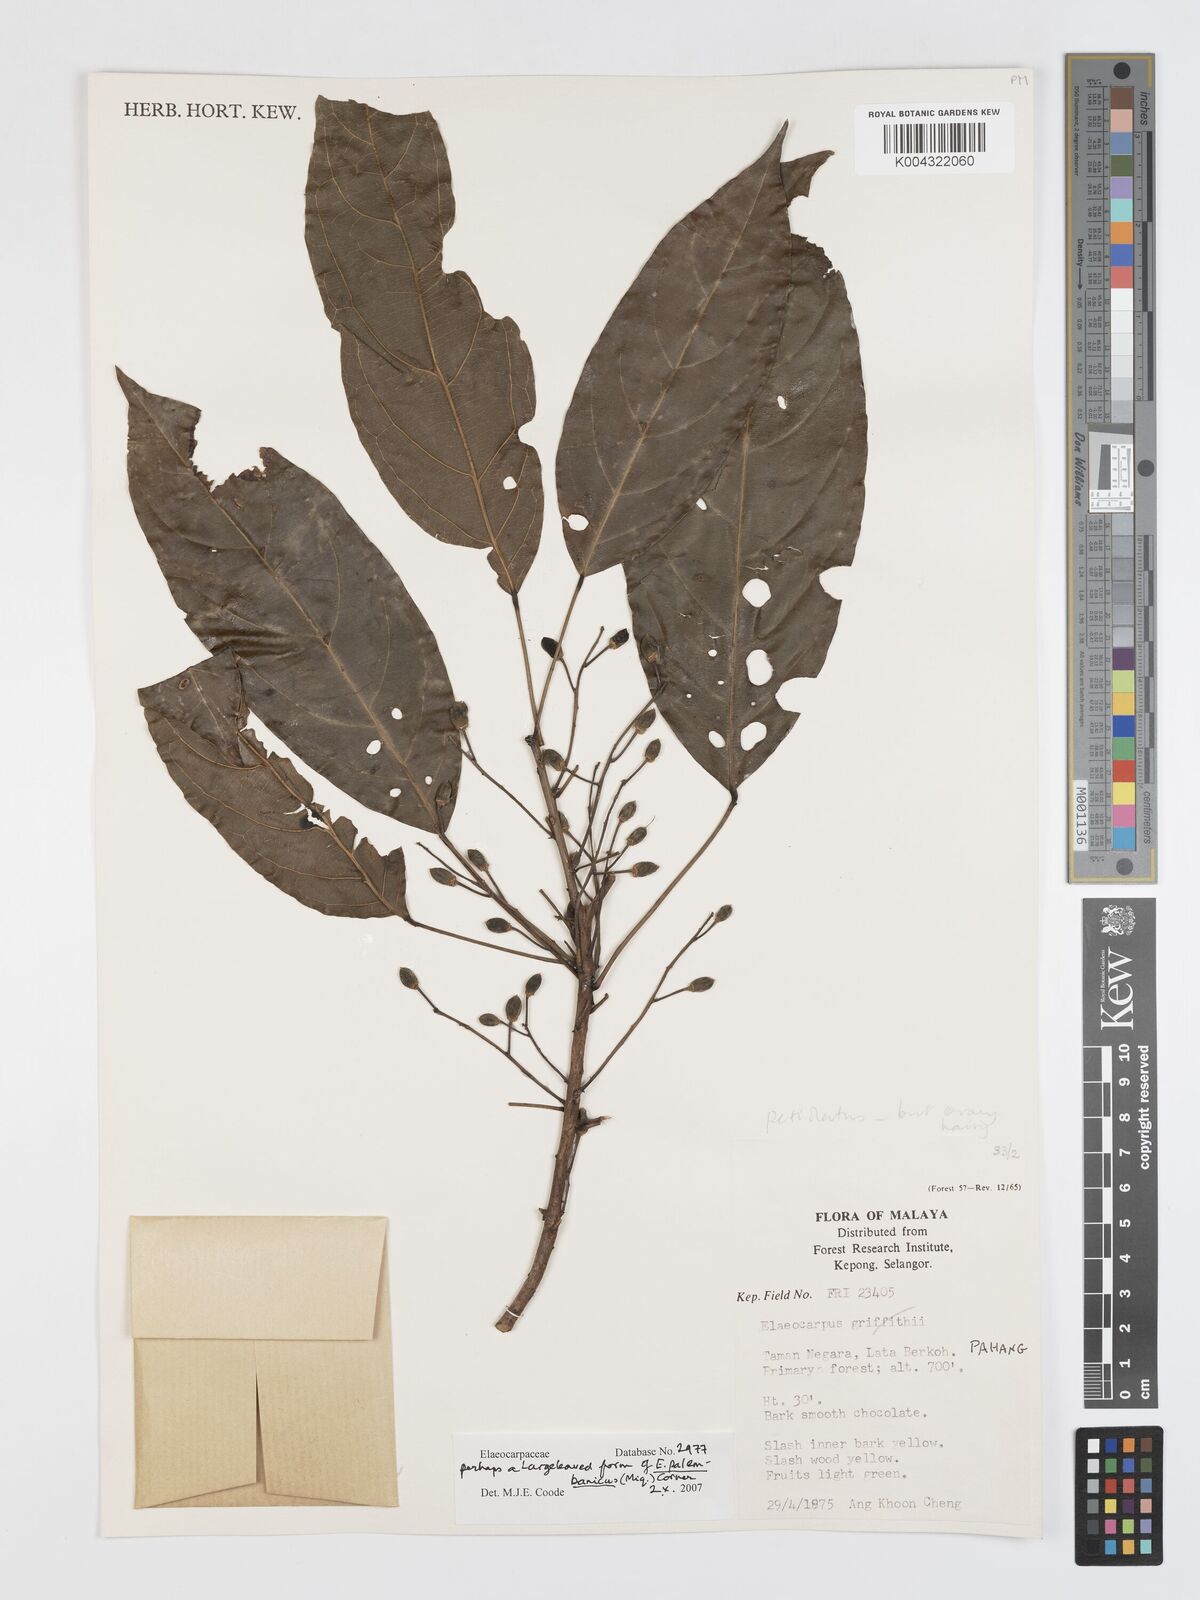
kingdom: Plantae
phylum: Tracheophyta
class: Magnoliopsida
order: Oxalidales
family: Elaeocarpaceae
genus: Elaeocarpus
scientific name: Elaeocarpus palembanicus
